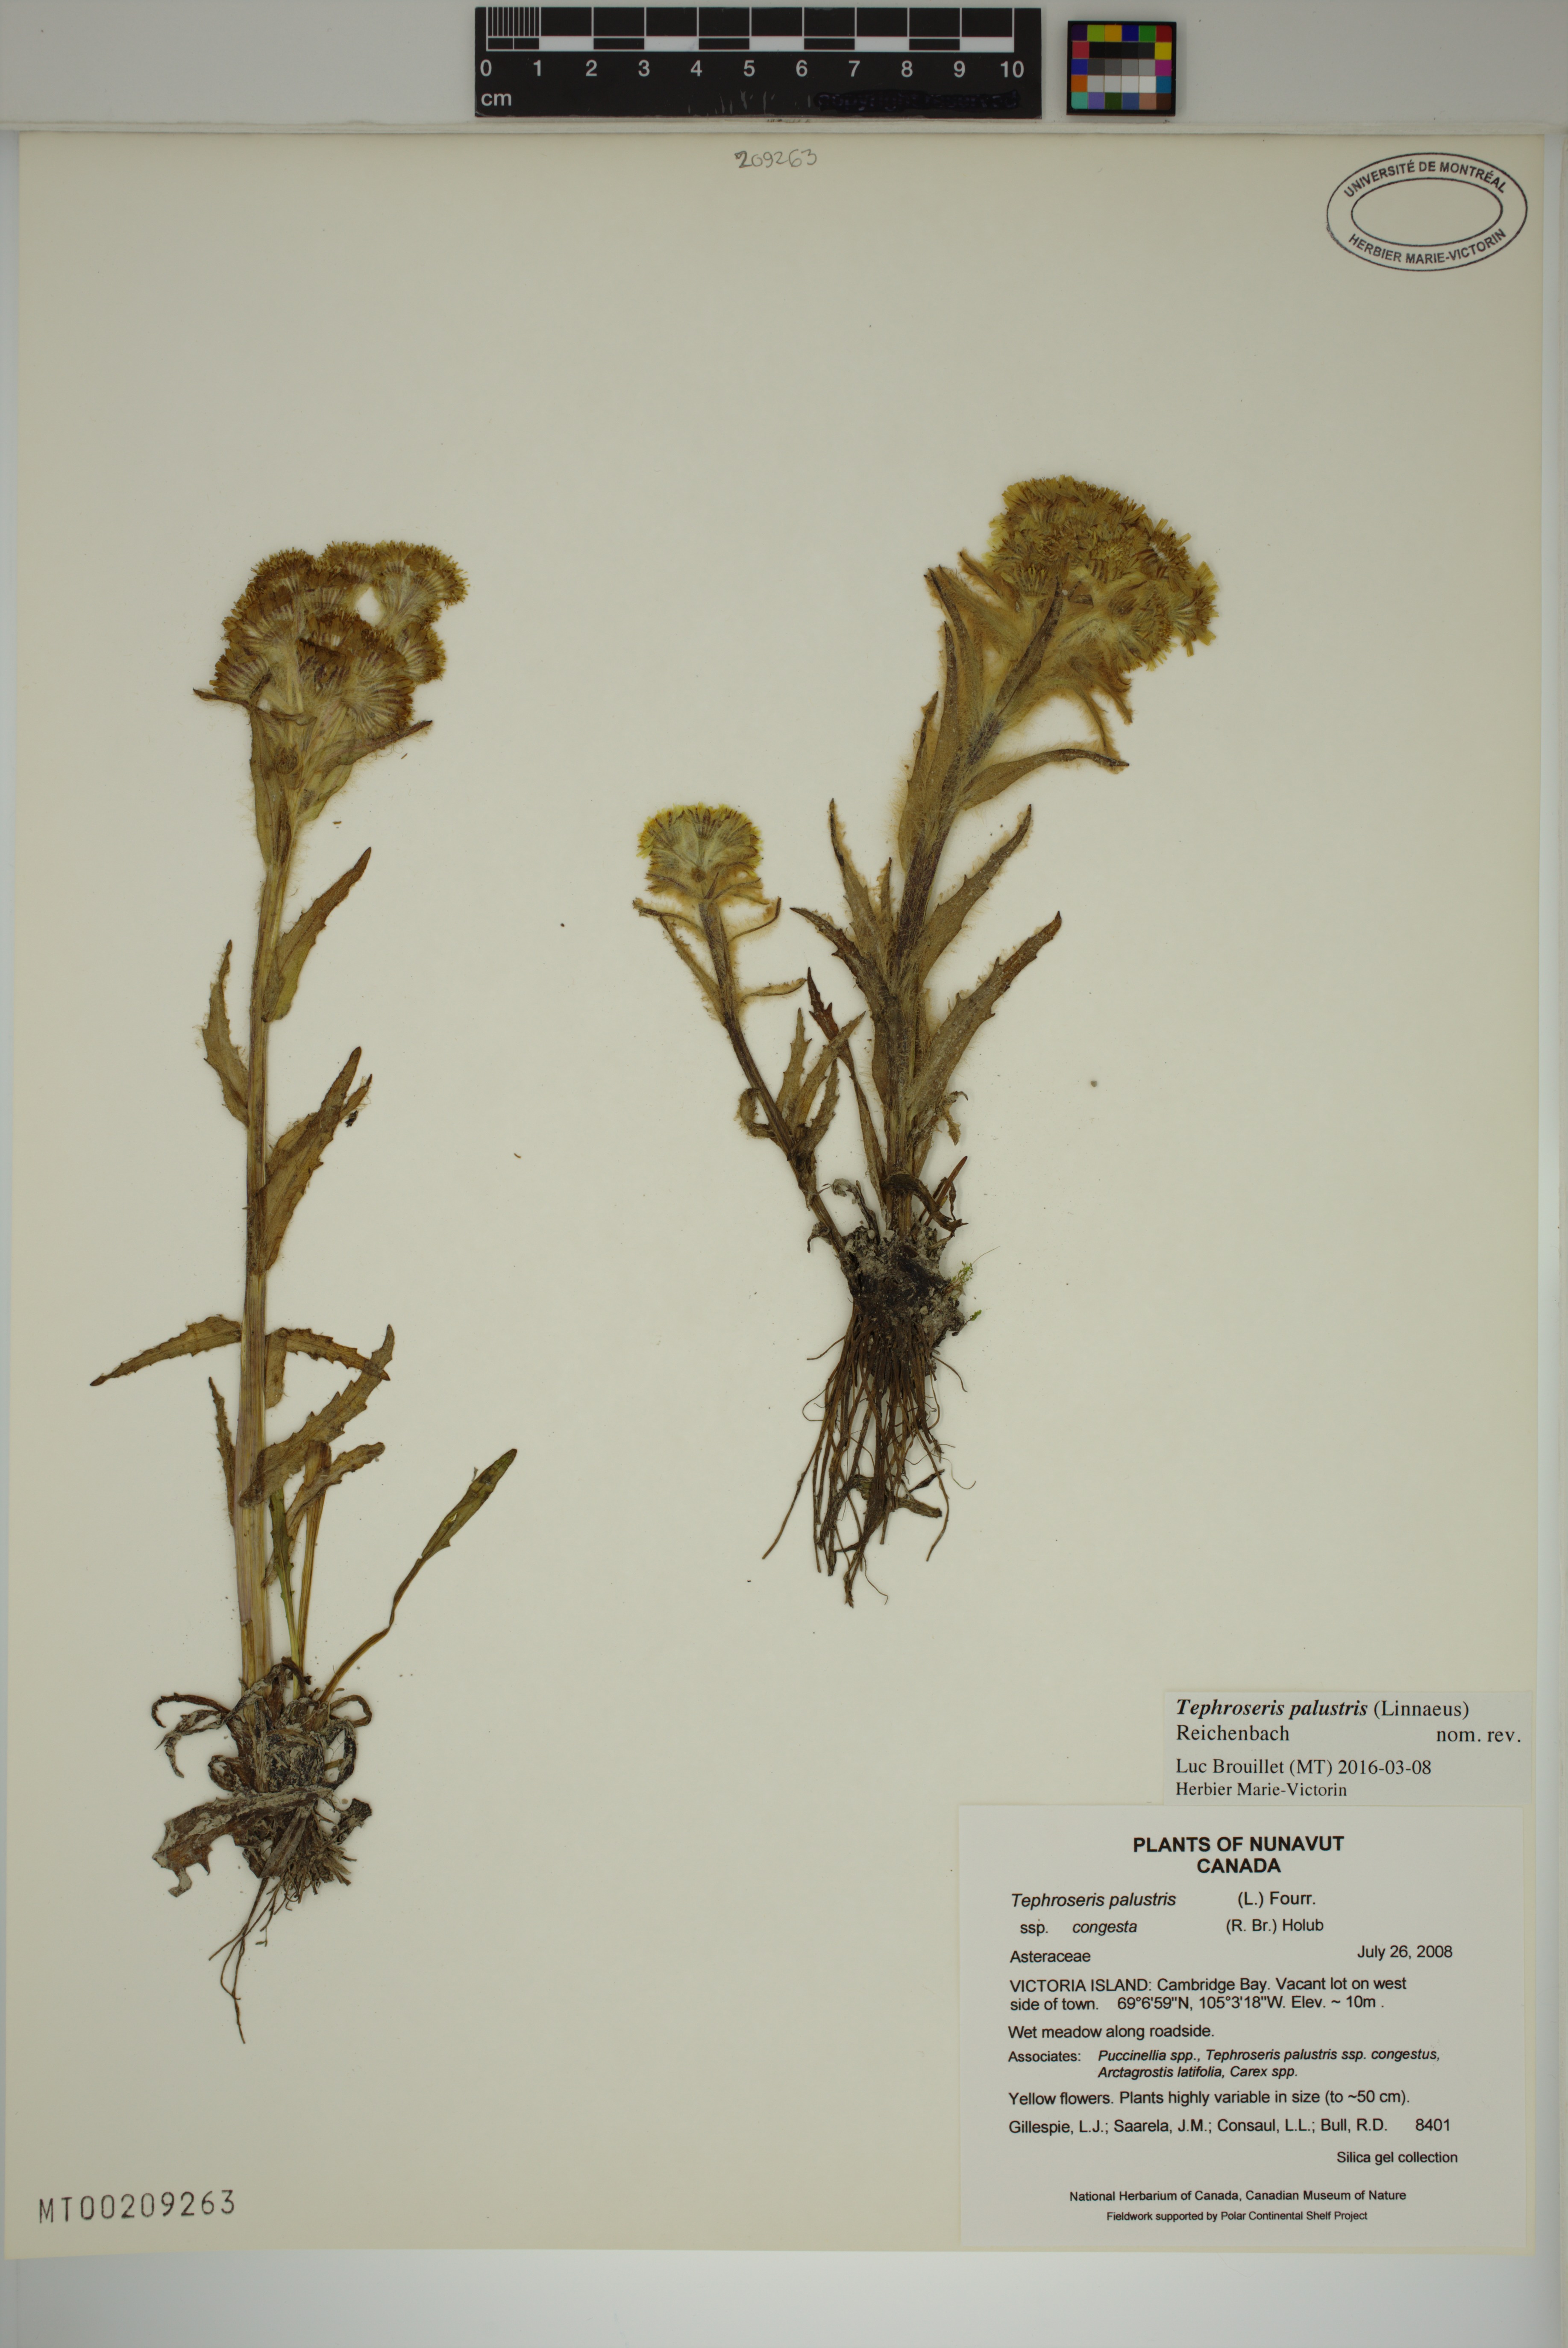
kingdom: Plantae
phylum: Tracheophyta
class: Magnoliopsida
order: Asterales
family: Asteraceae
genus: Tephroseris
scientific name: Tephroseris palustris
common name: Marsh fleawort
